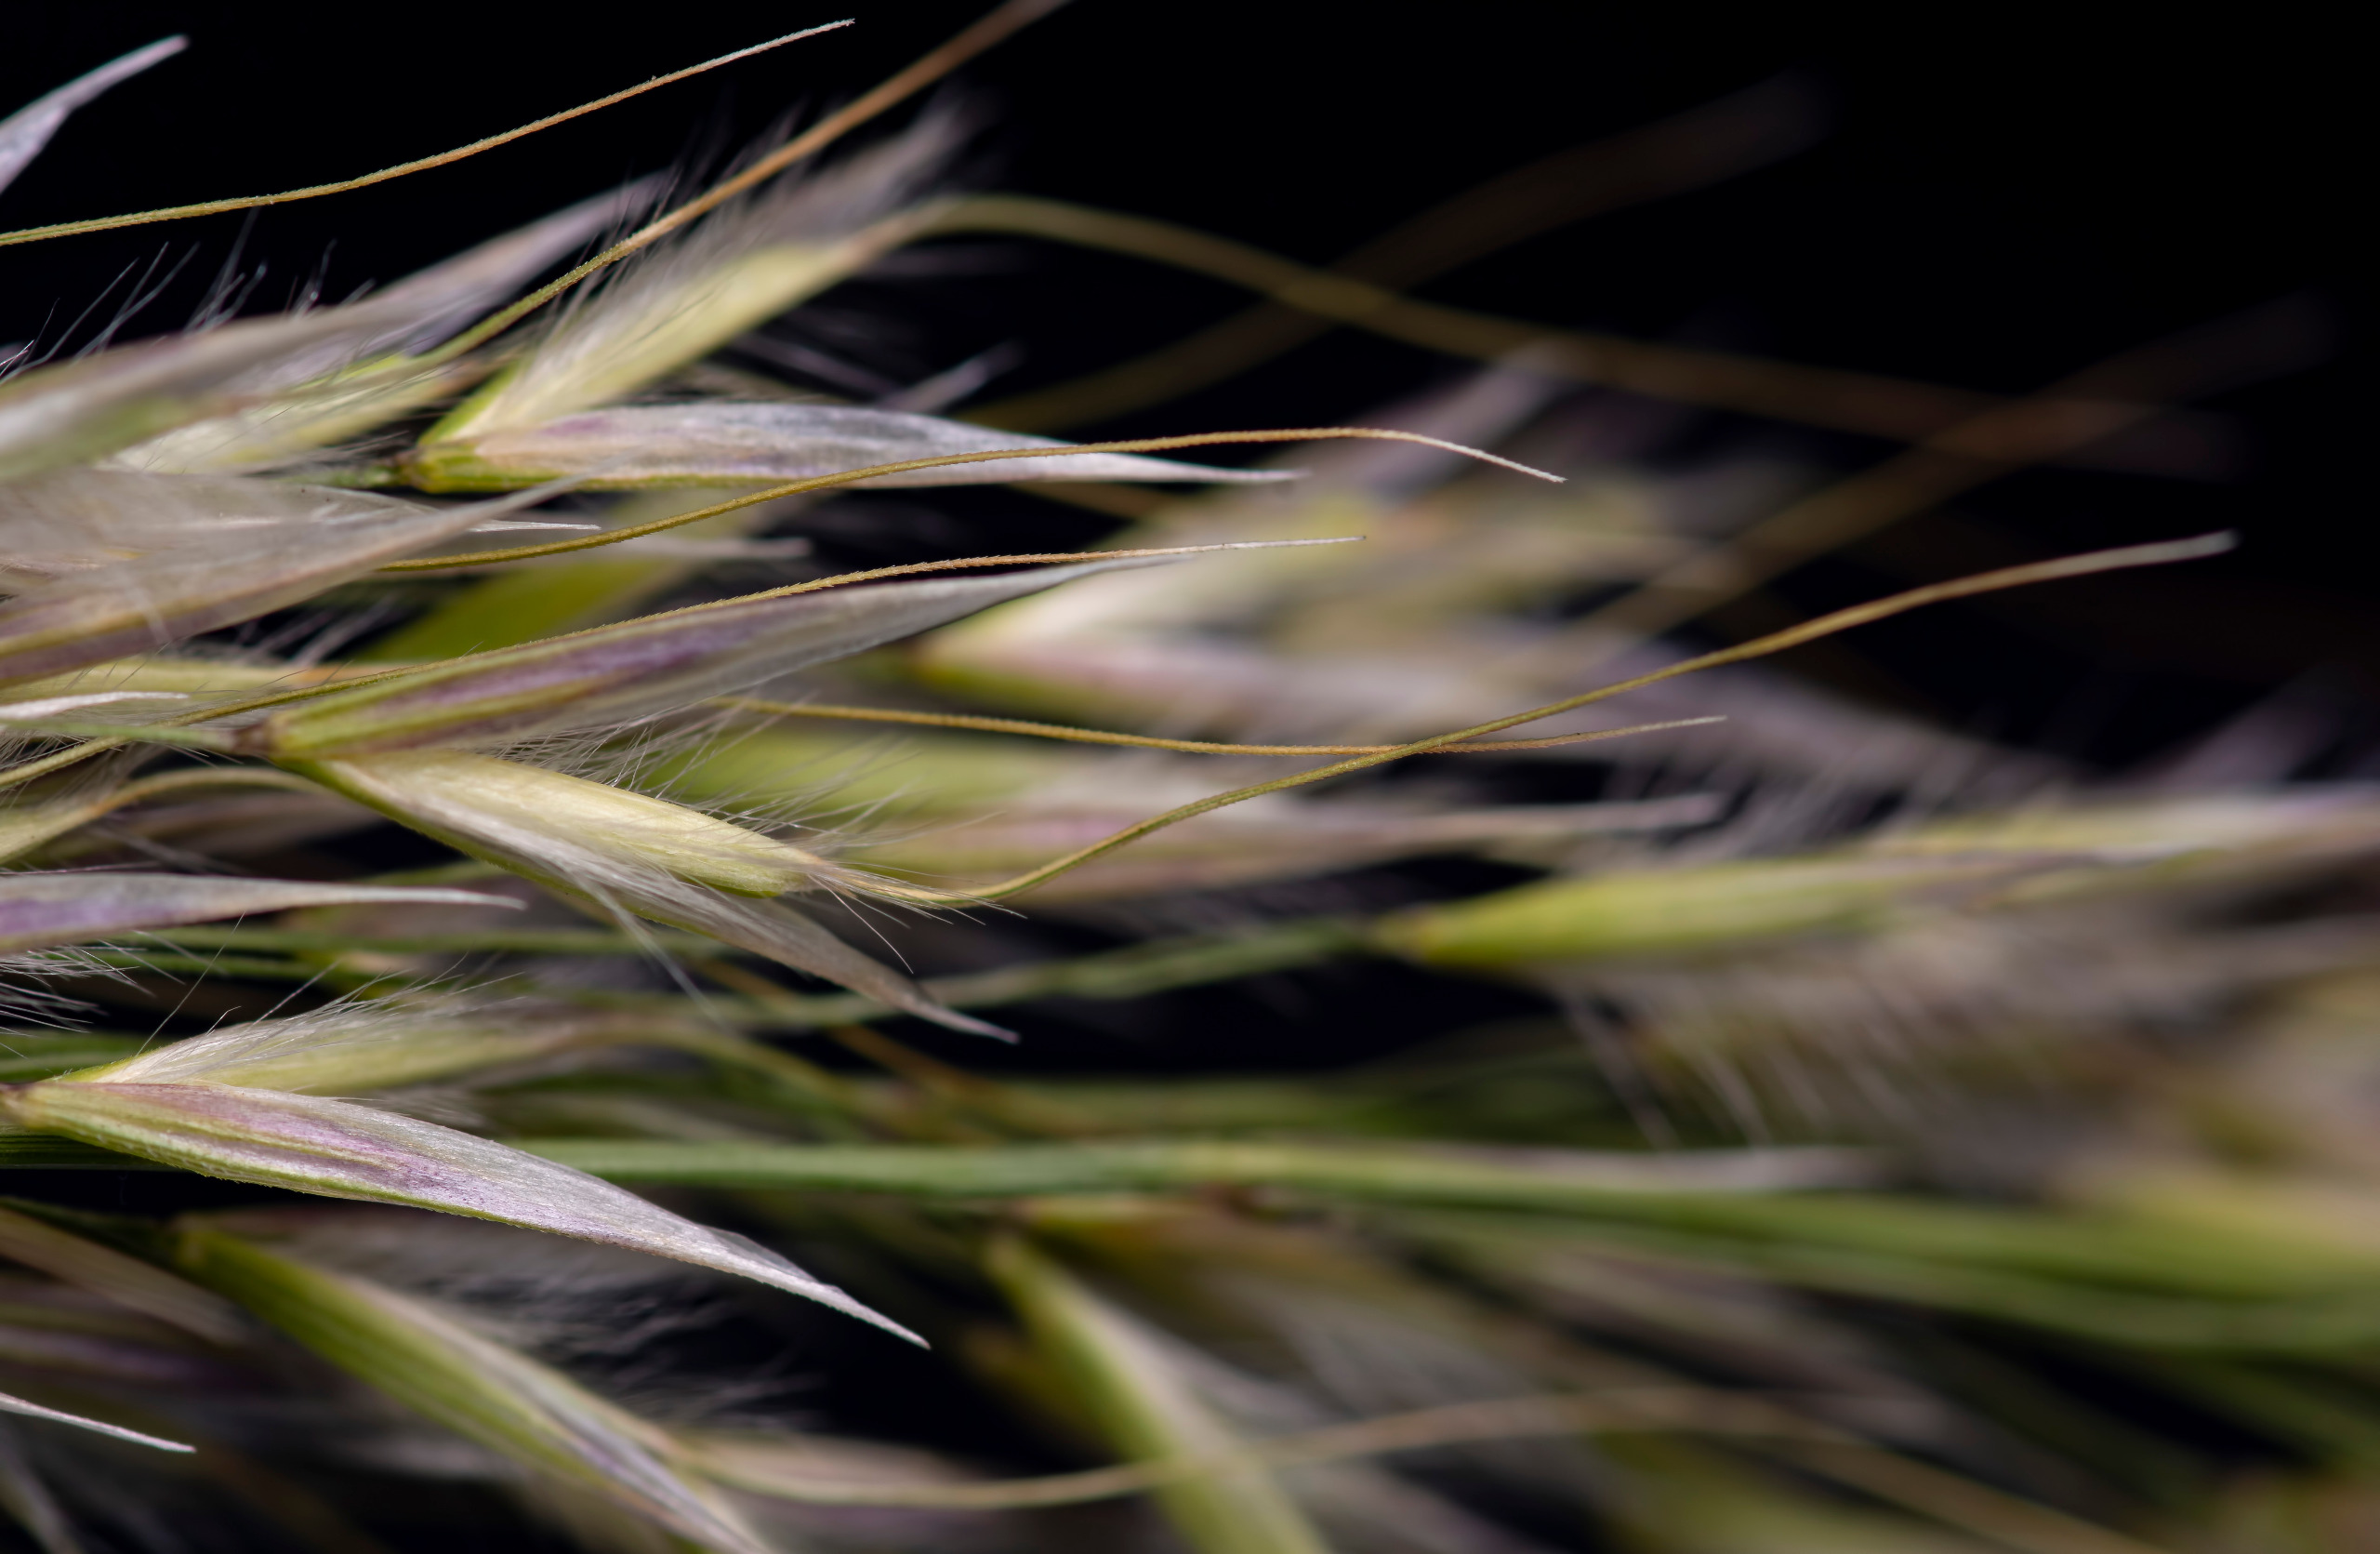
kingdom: Plantae
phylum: Tracheophyta
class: Liliopsida
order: Poales
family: Poaceae
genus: Achnatherum
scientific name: Achnatherum calamagrostis
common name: Sølvaksgræs
